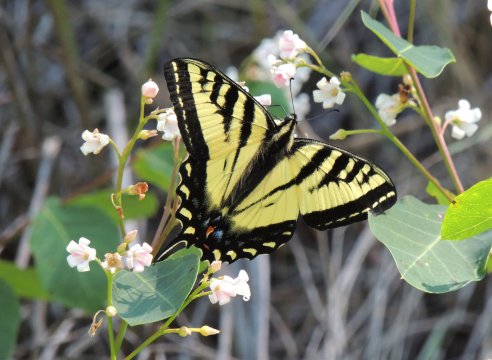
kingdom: Animalia
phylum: Arthropoda
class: Insecta
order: Lepidoptera
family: Papilionidae
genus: Pterourus
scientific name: Pterourus rutulus
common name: Western Tiger Swallowtail
